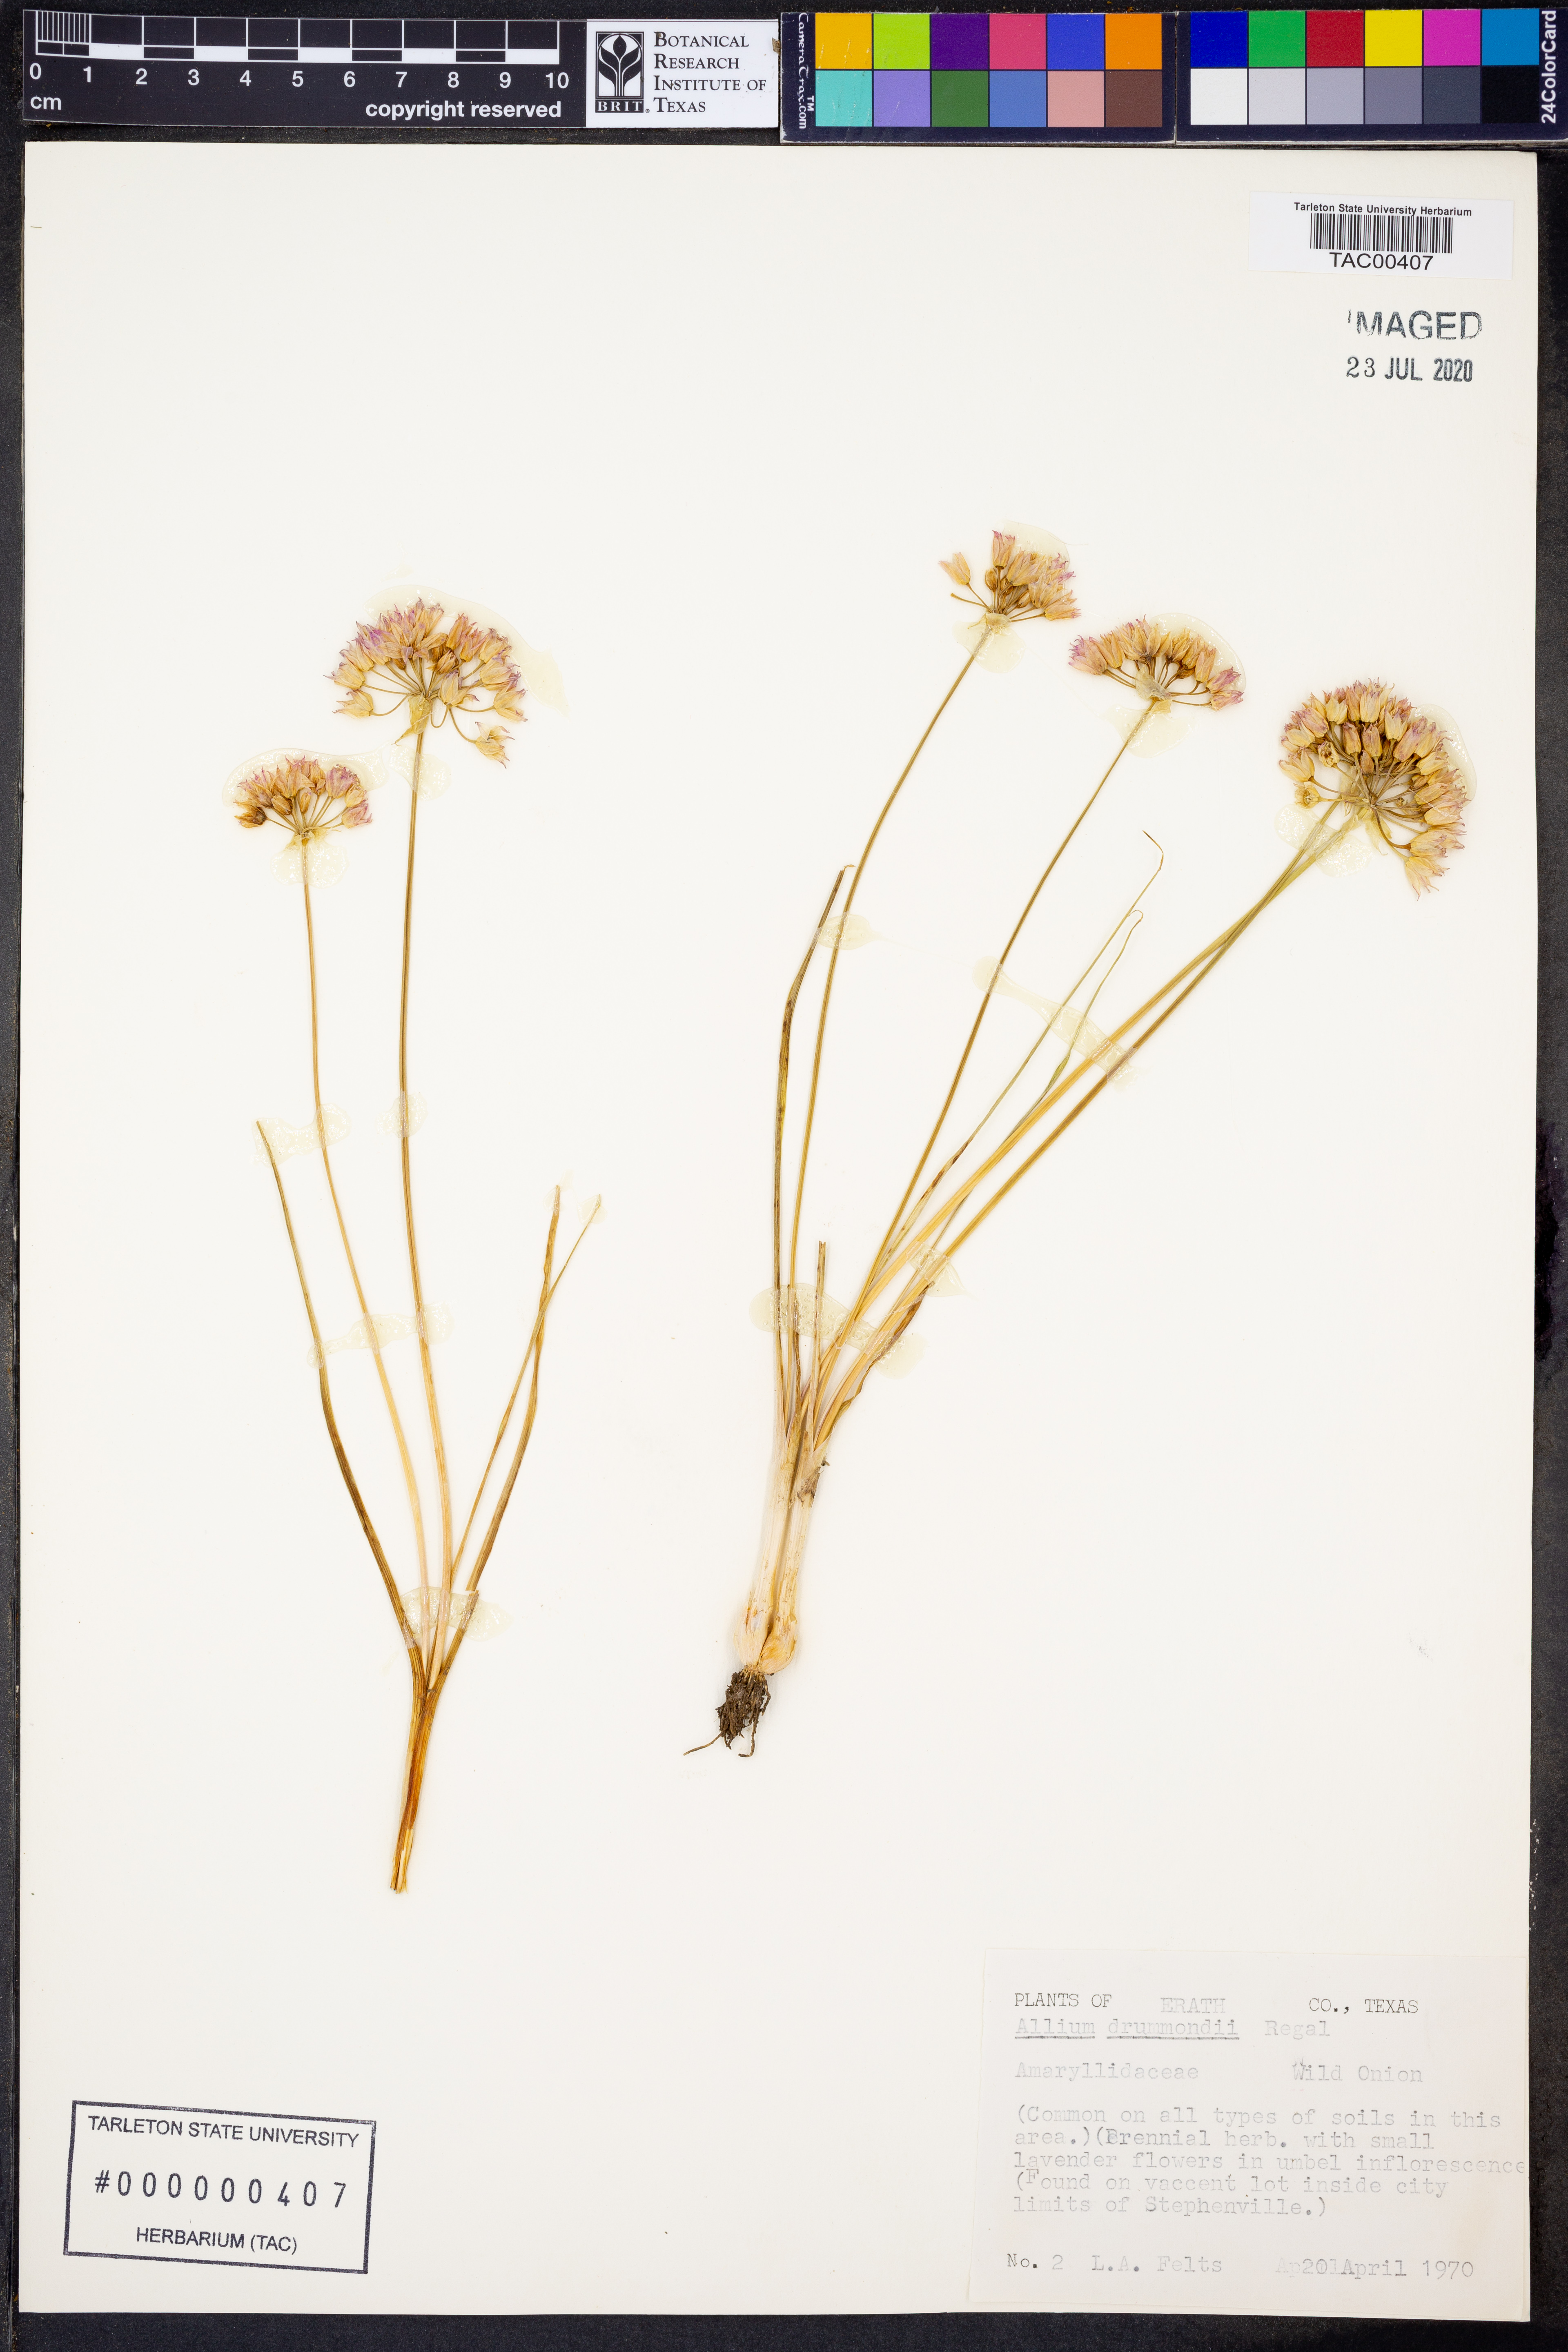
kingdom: Plantae
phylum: Tracheophyta
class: Liliopsida
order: Asparagales
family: Amaryllidaceae
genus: Allium
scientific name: Allium drummondii
